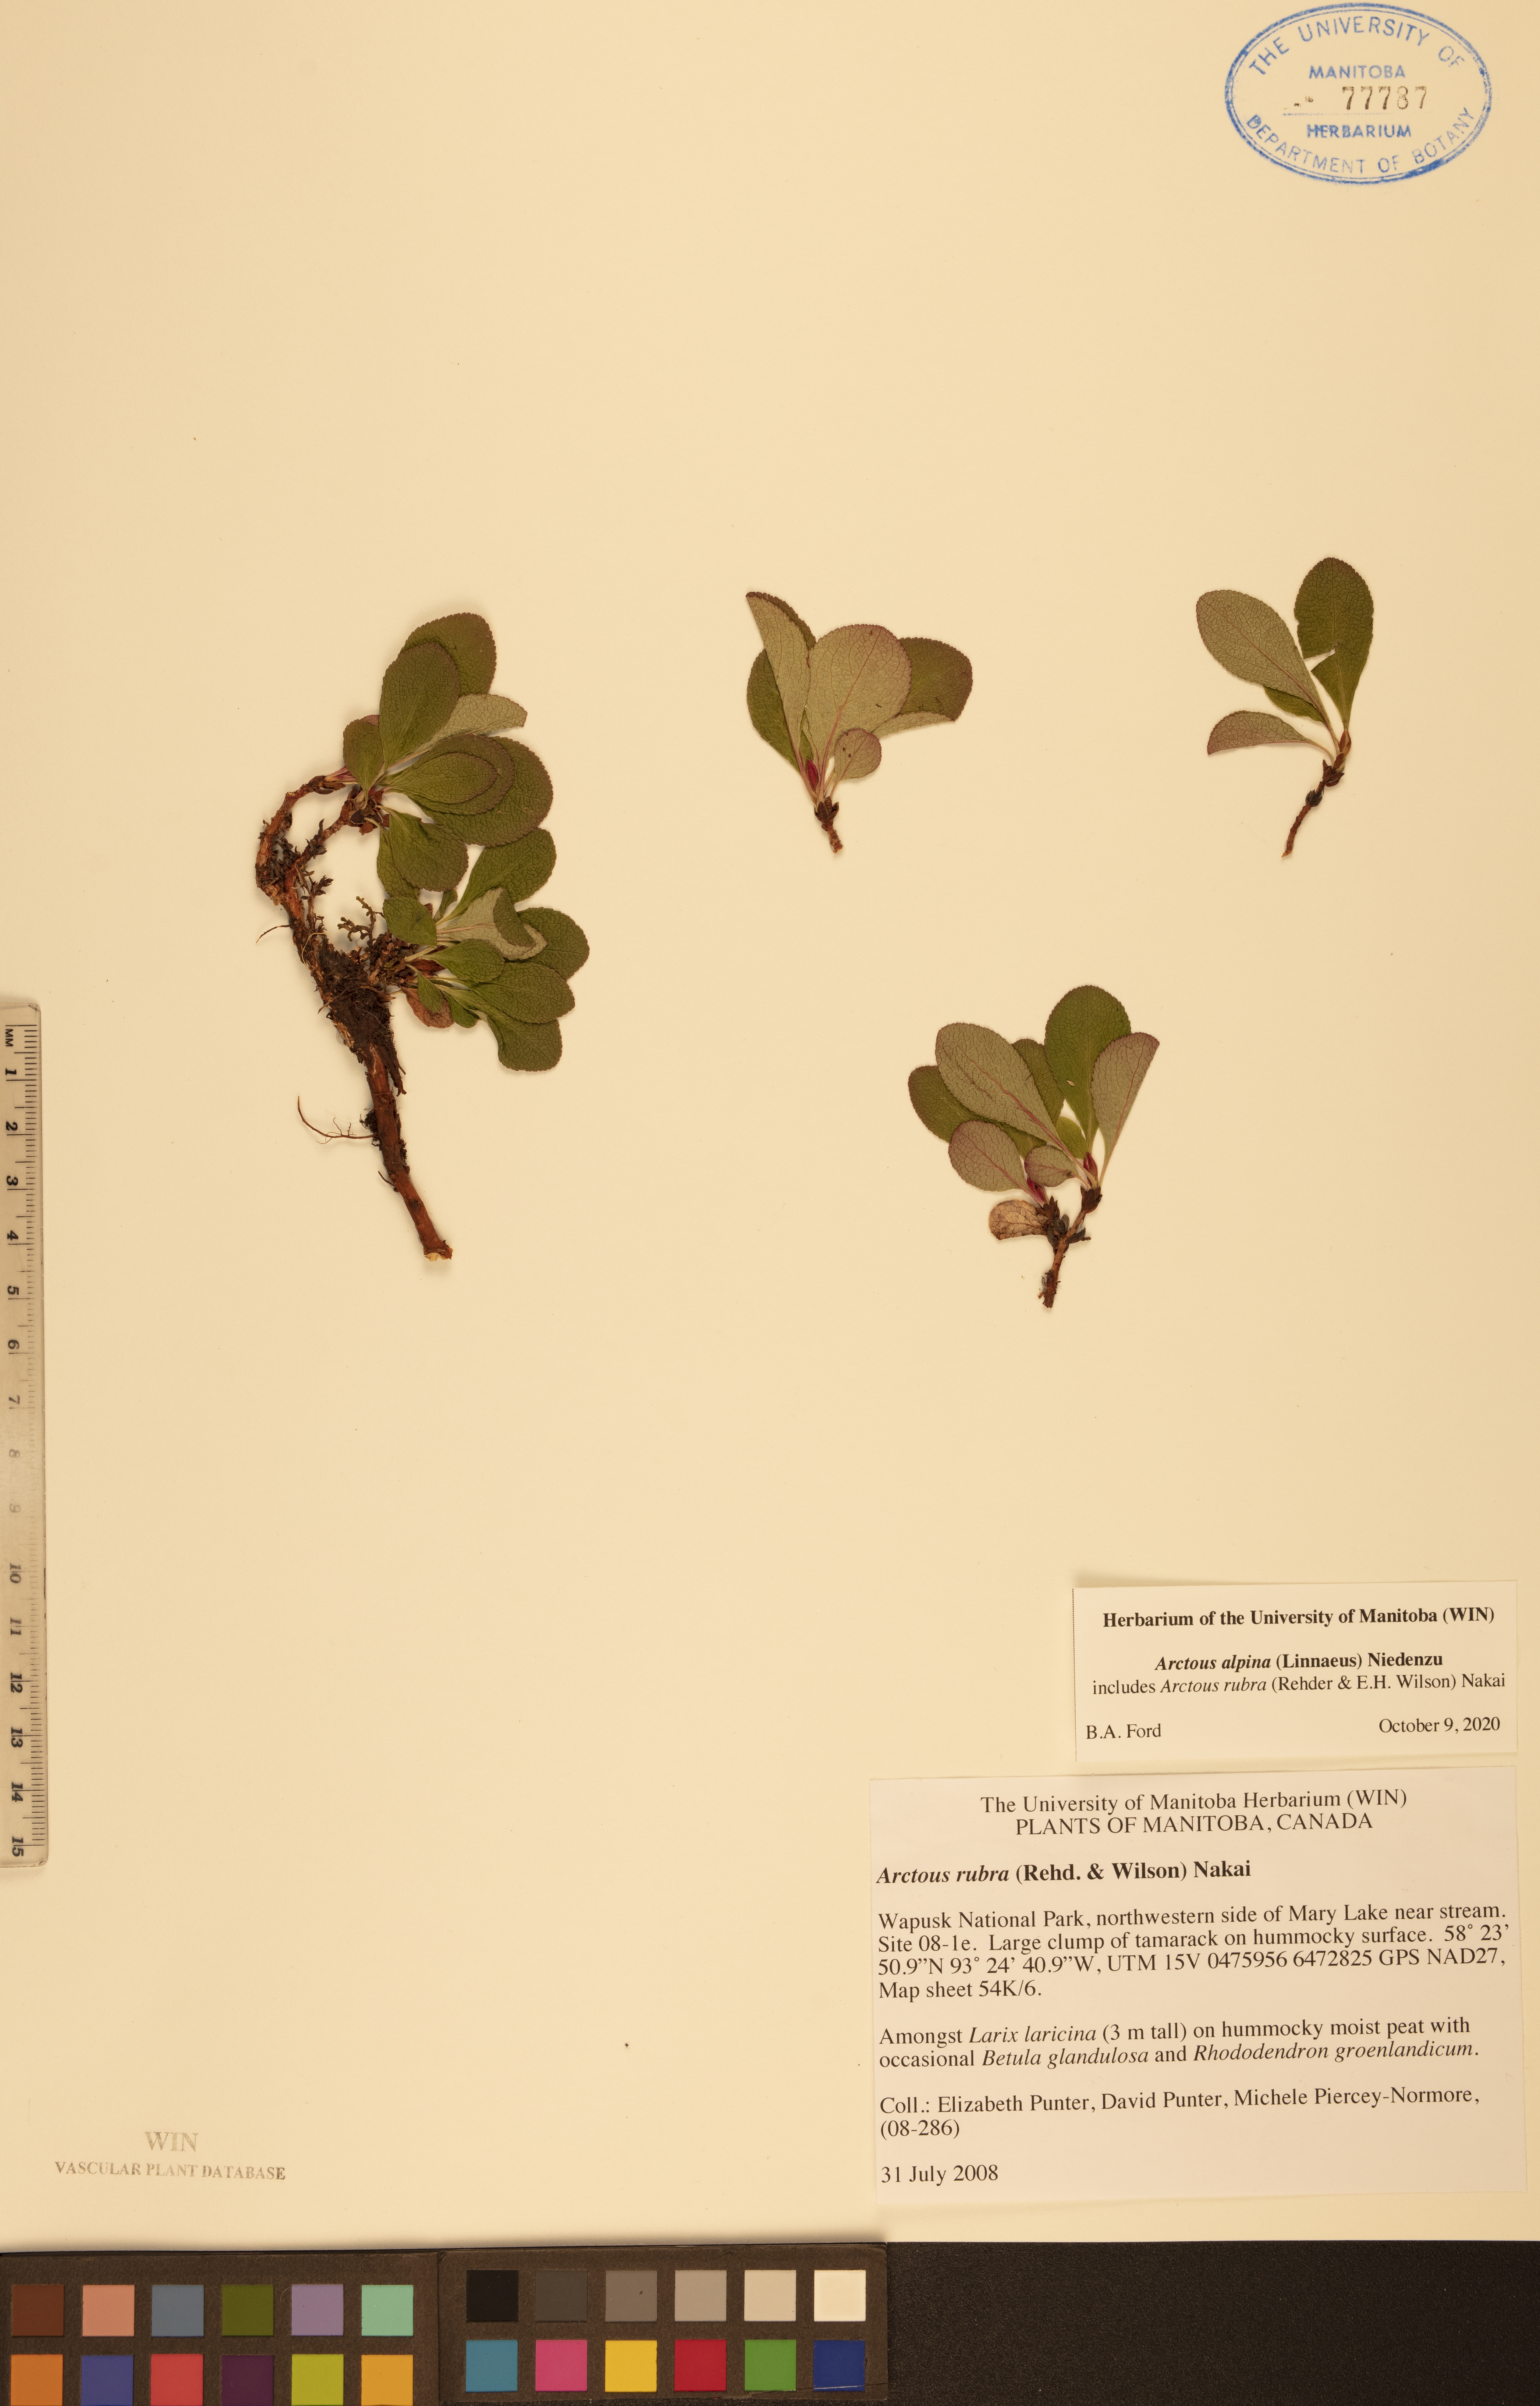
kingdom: Plantae
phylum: Tracheophyta
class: Magnoliopsida
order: Ericales
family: Ericaceae
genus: Arctostaphylos
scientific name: Arctostaphylos alpinus
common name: Alpine bearberry
